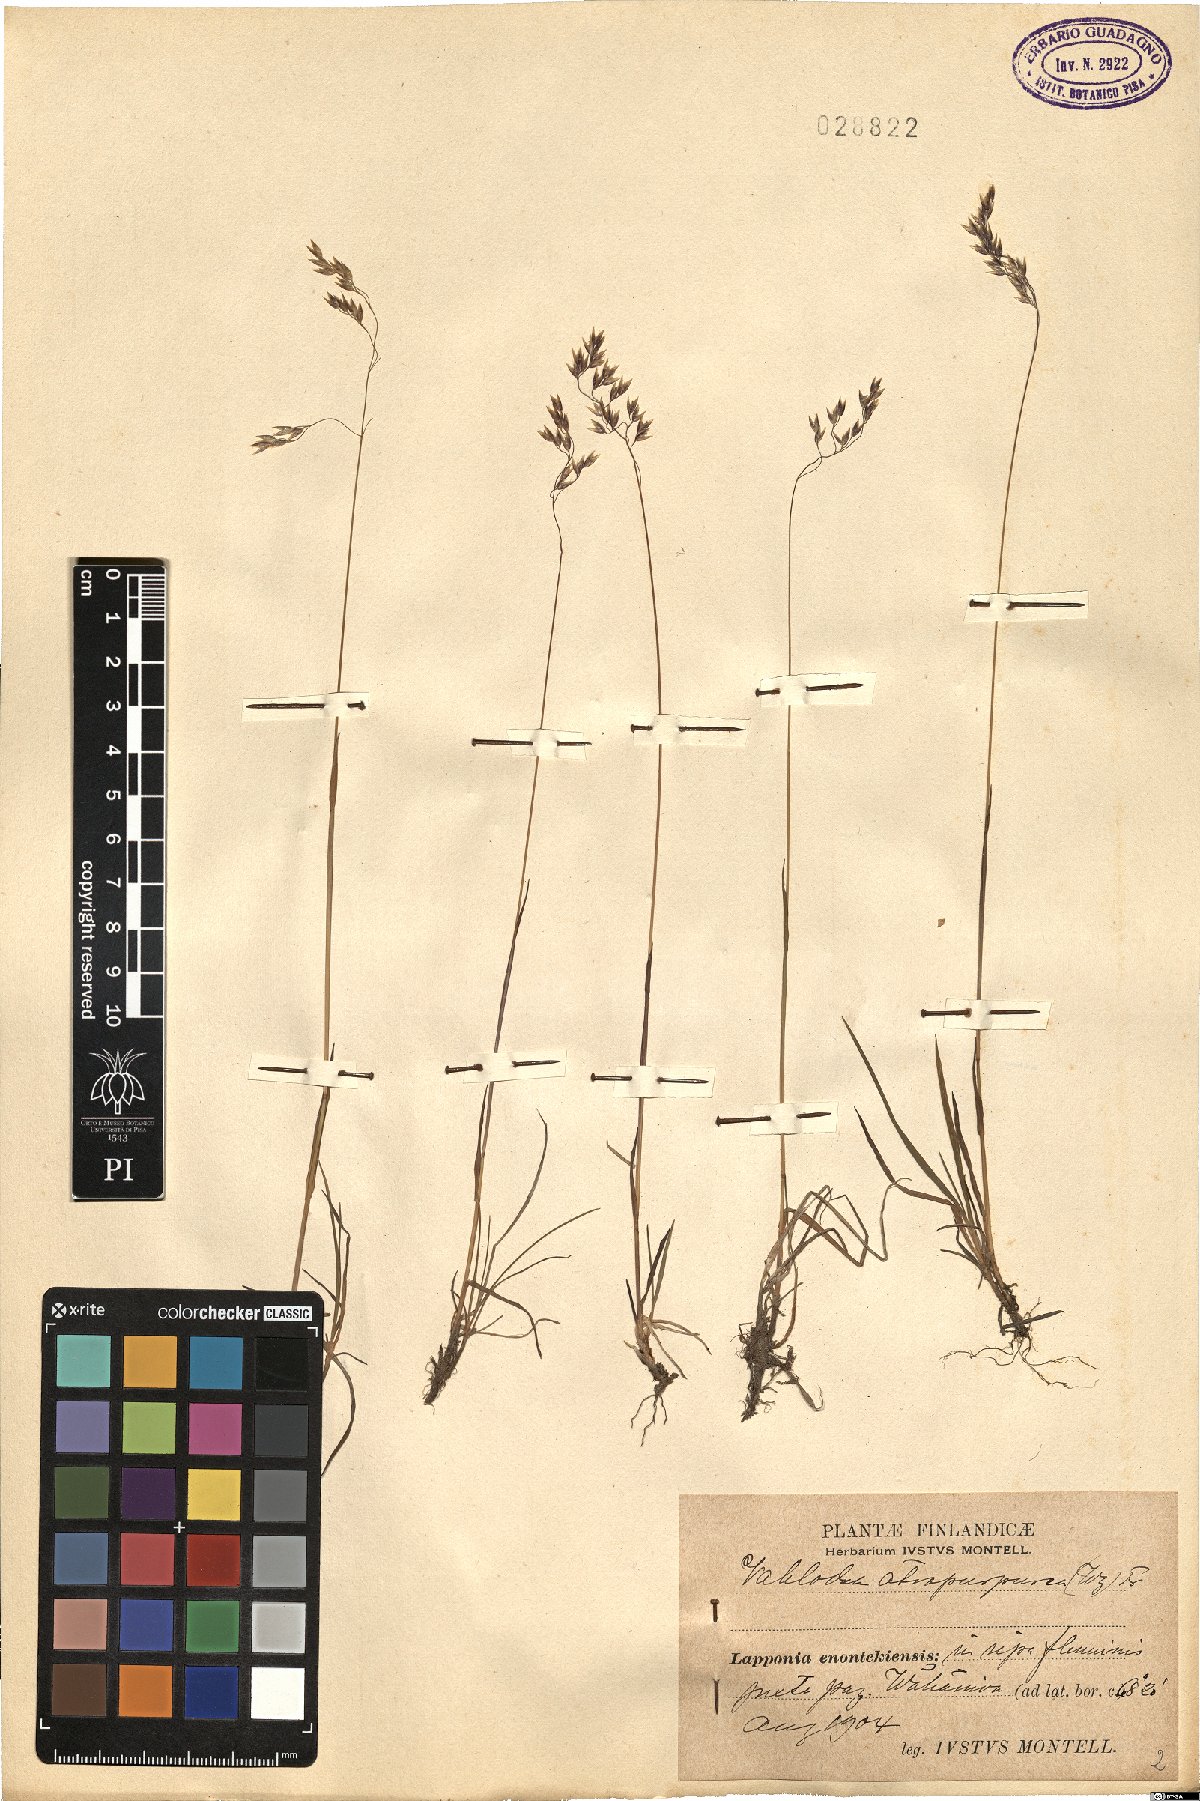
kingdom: Plantae
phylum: Tracheophyta
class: Liliopsida
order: Poales
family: Poaceae
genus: Vahlodea
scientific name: Vahlodea atropurpurea
